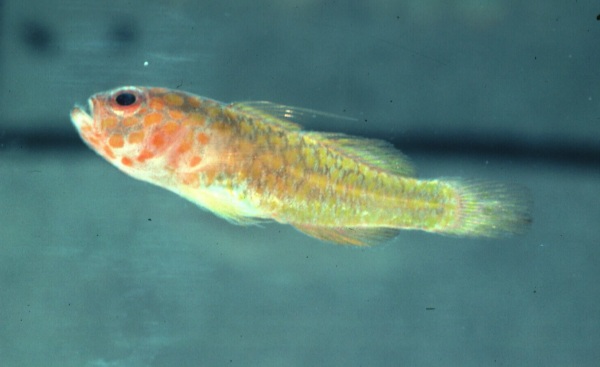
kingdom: Animalia
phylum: Chordata
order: Perciformes
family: Gobiidae
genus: Trimma
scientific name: Trimma flammeum
